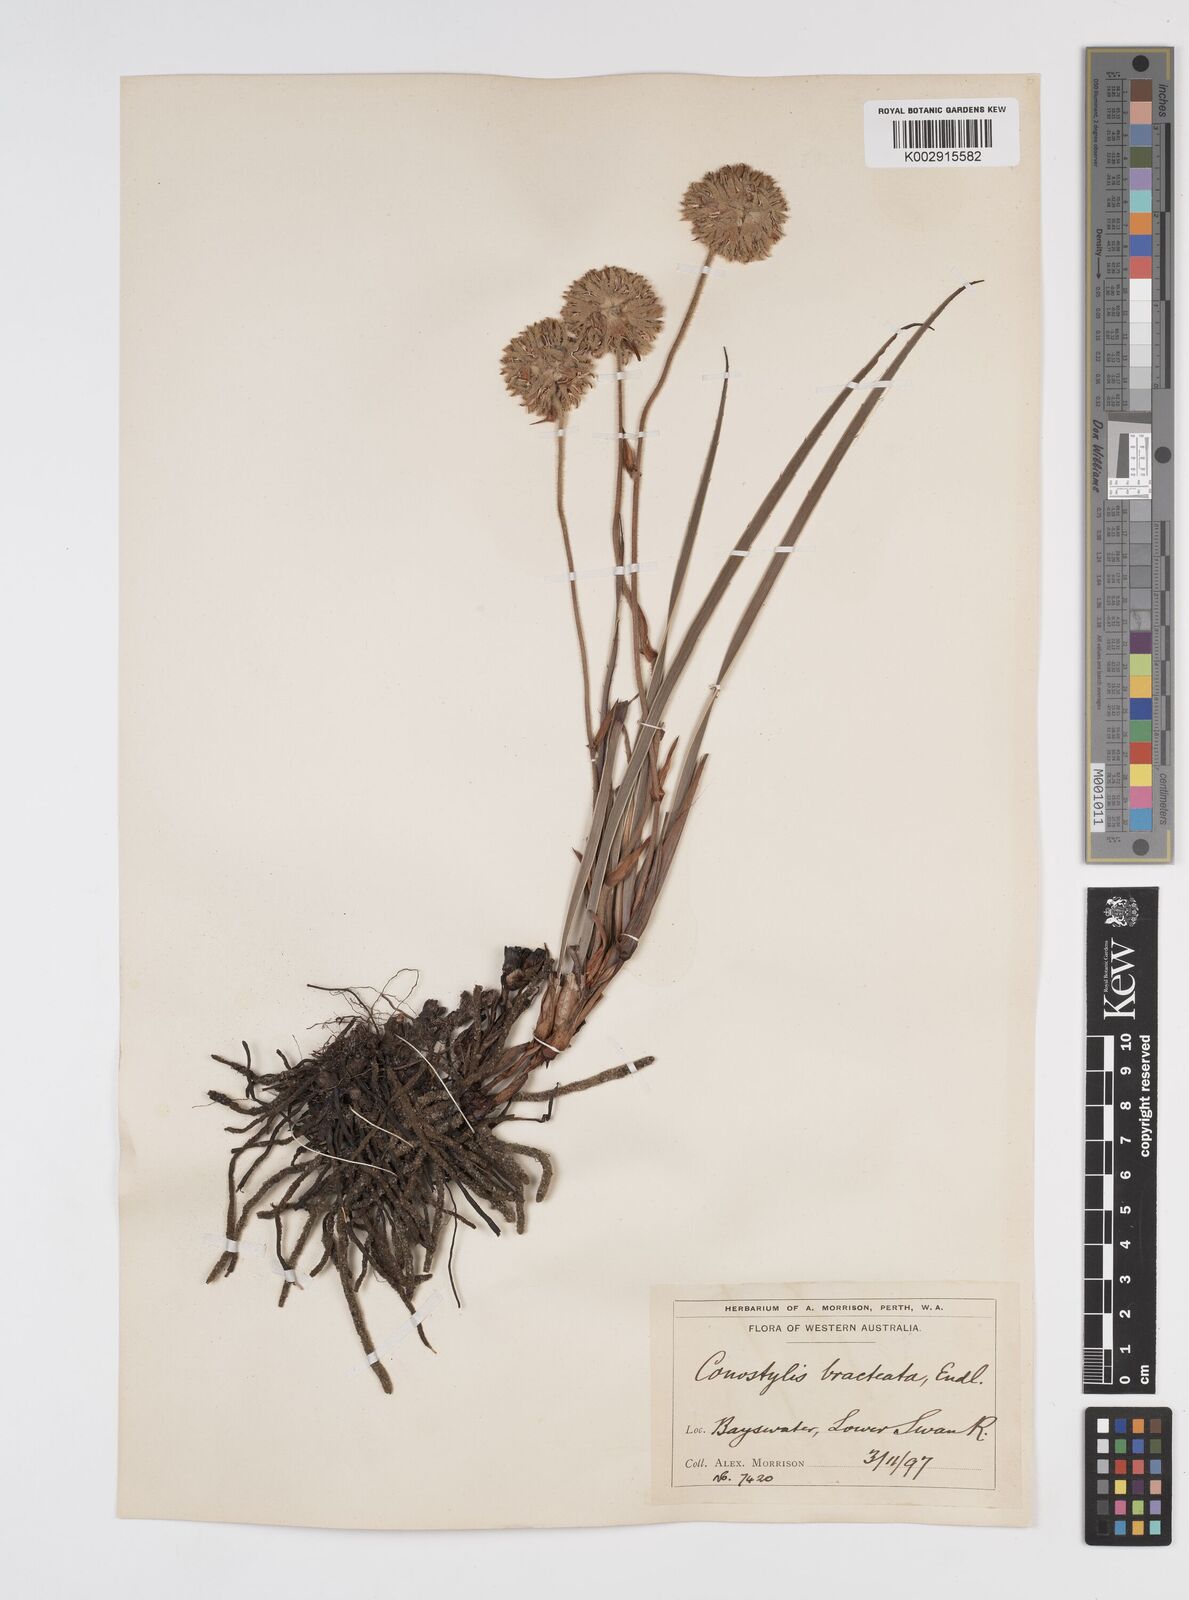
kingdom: Plantae
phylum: Tracheophyta
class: Liliopsida
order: Commelinales
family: Haemodoraceae
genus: Conostylis
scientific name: Conostylis bracteata
